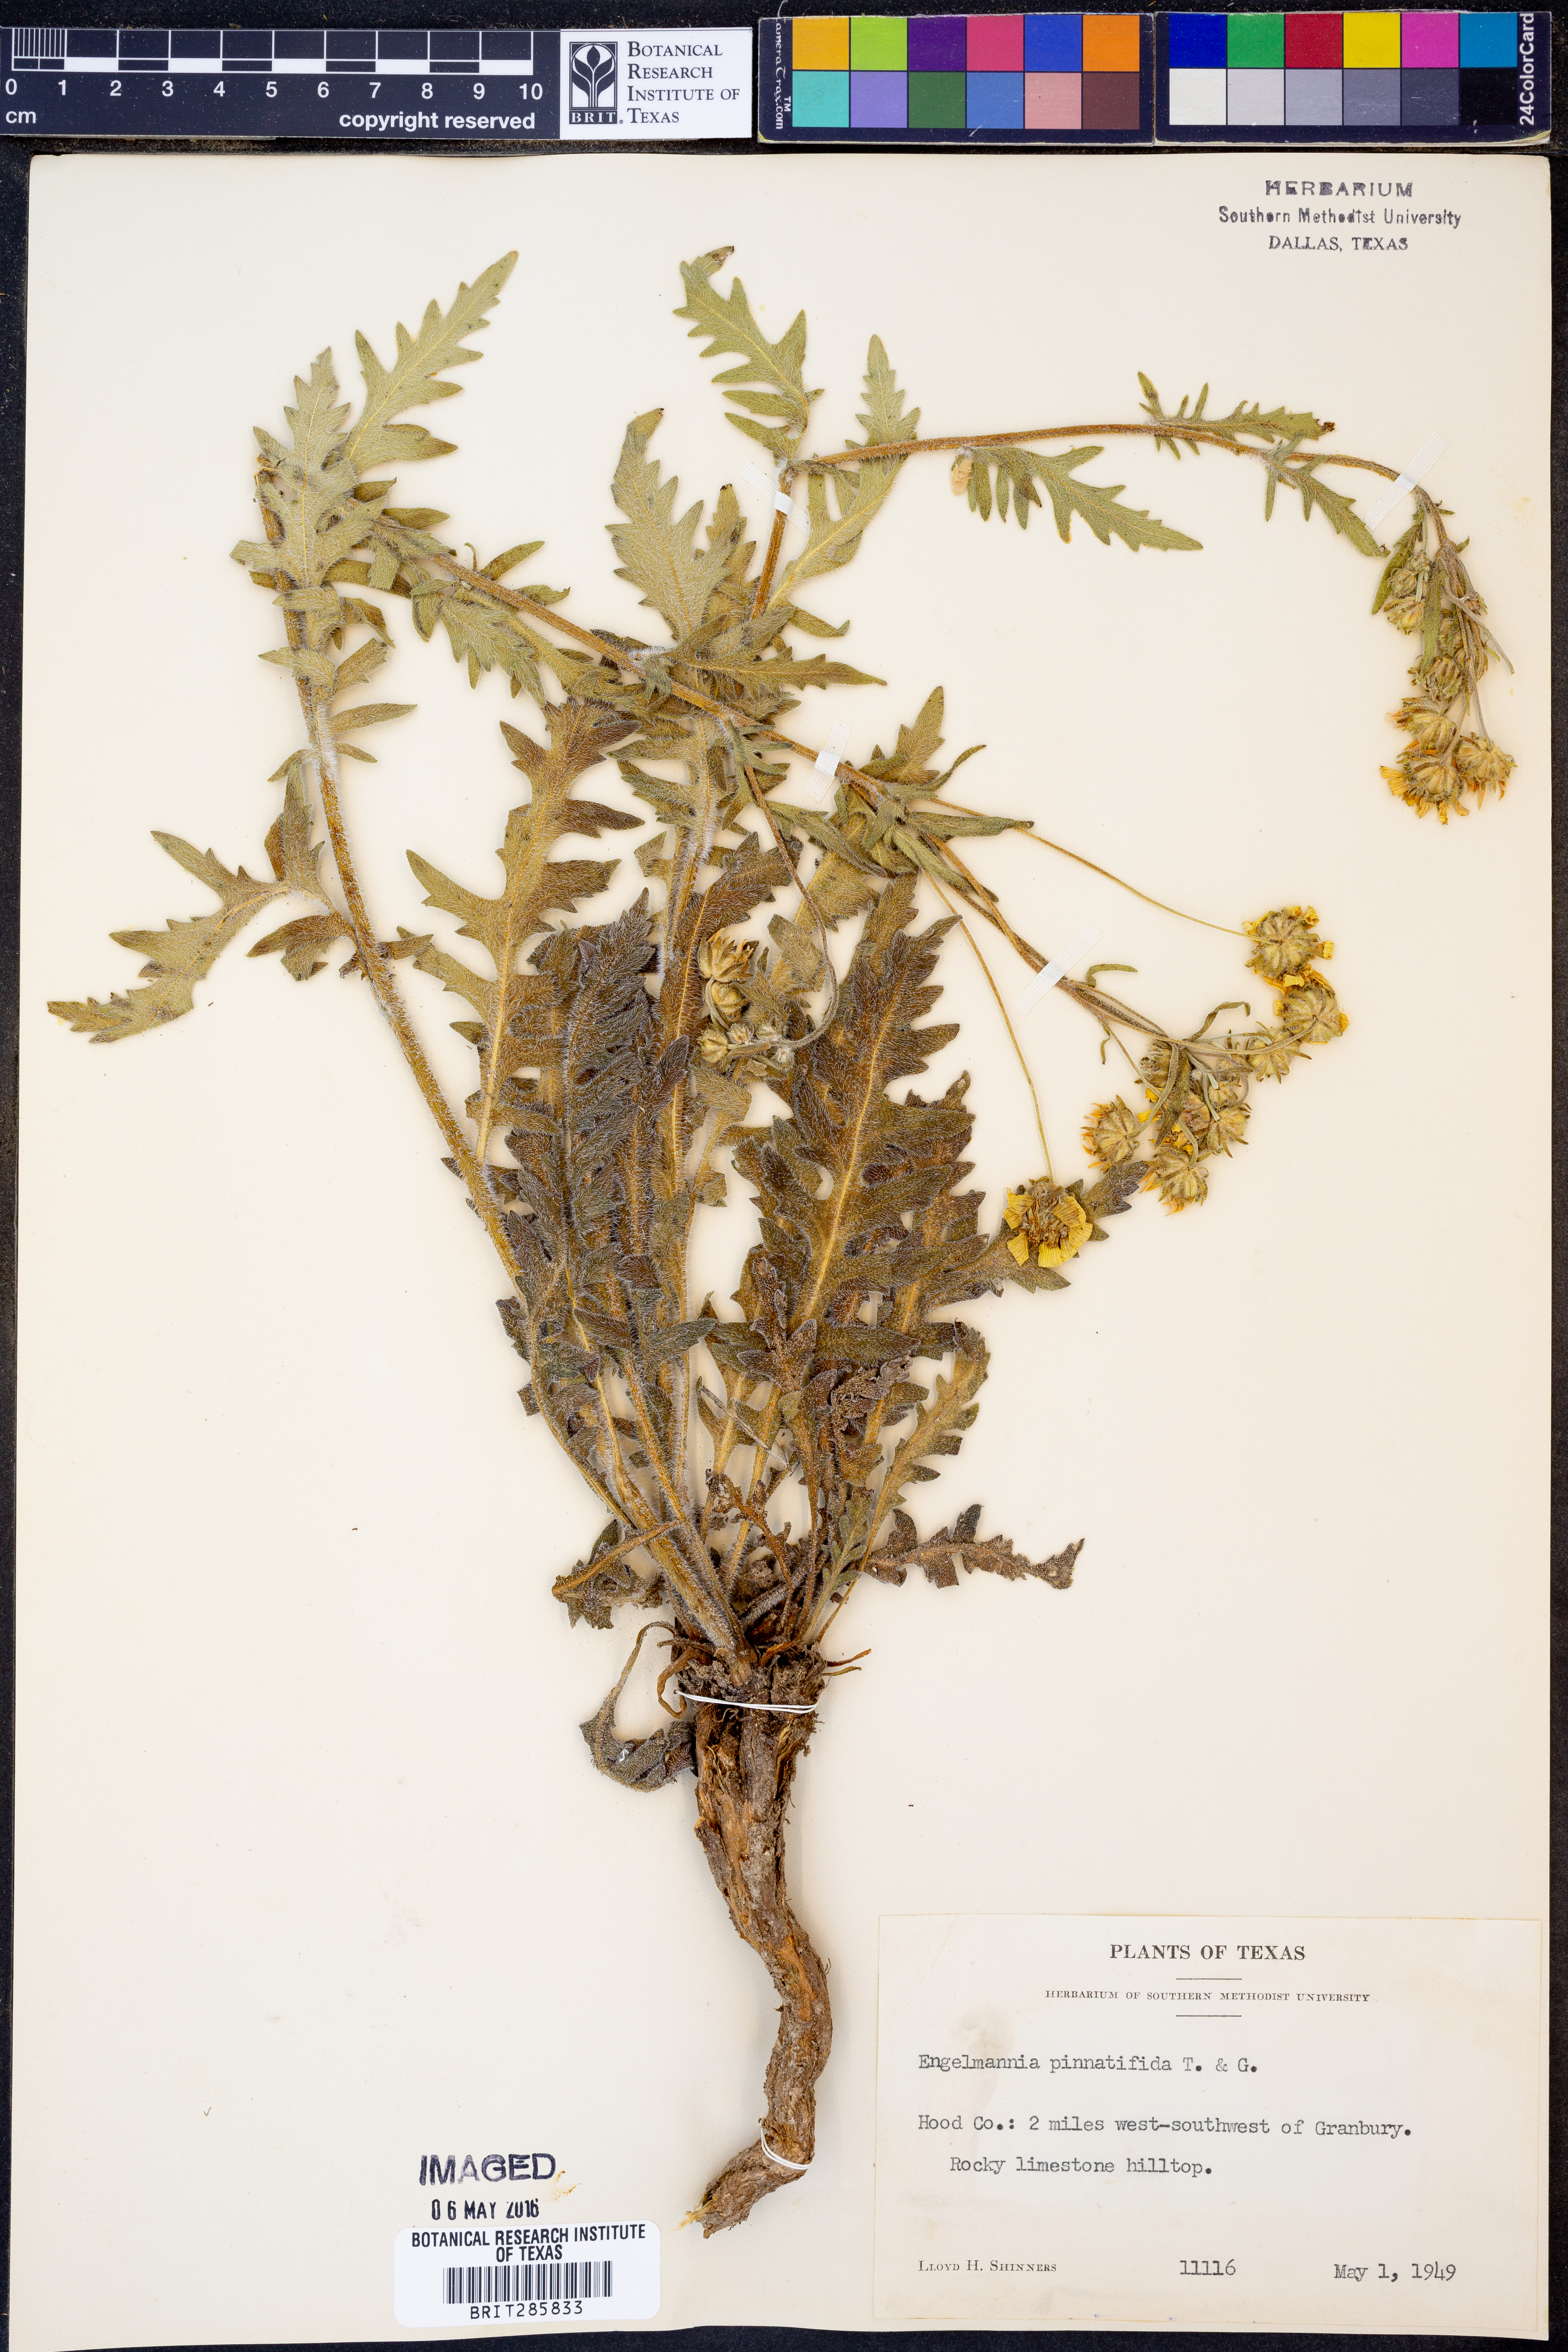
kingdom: Plantae
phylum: Tracheophyta
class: Magnoliopsida
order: Asterales
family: Asteraceae
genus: Engelmannia
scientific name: Engelmannia peristenia
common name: Engelmann's daisy
